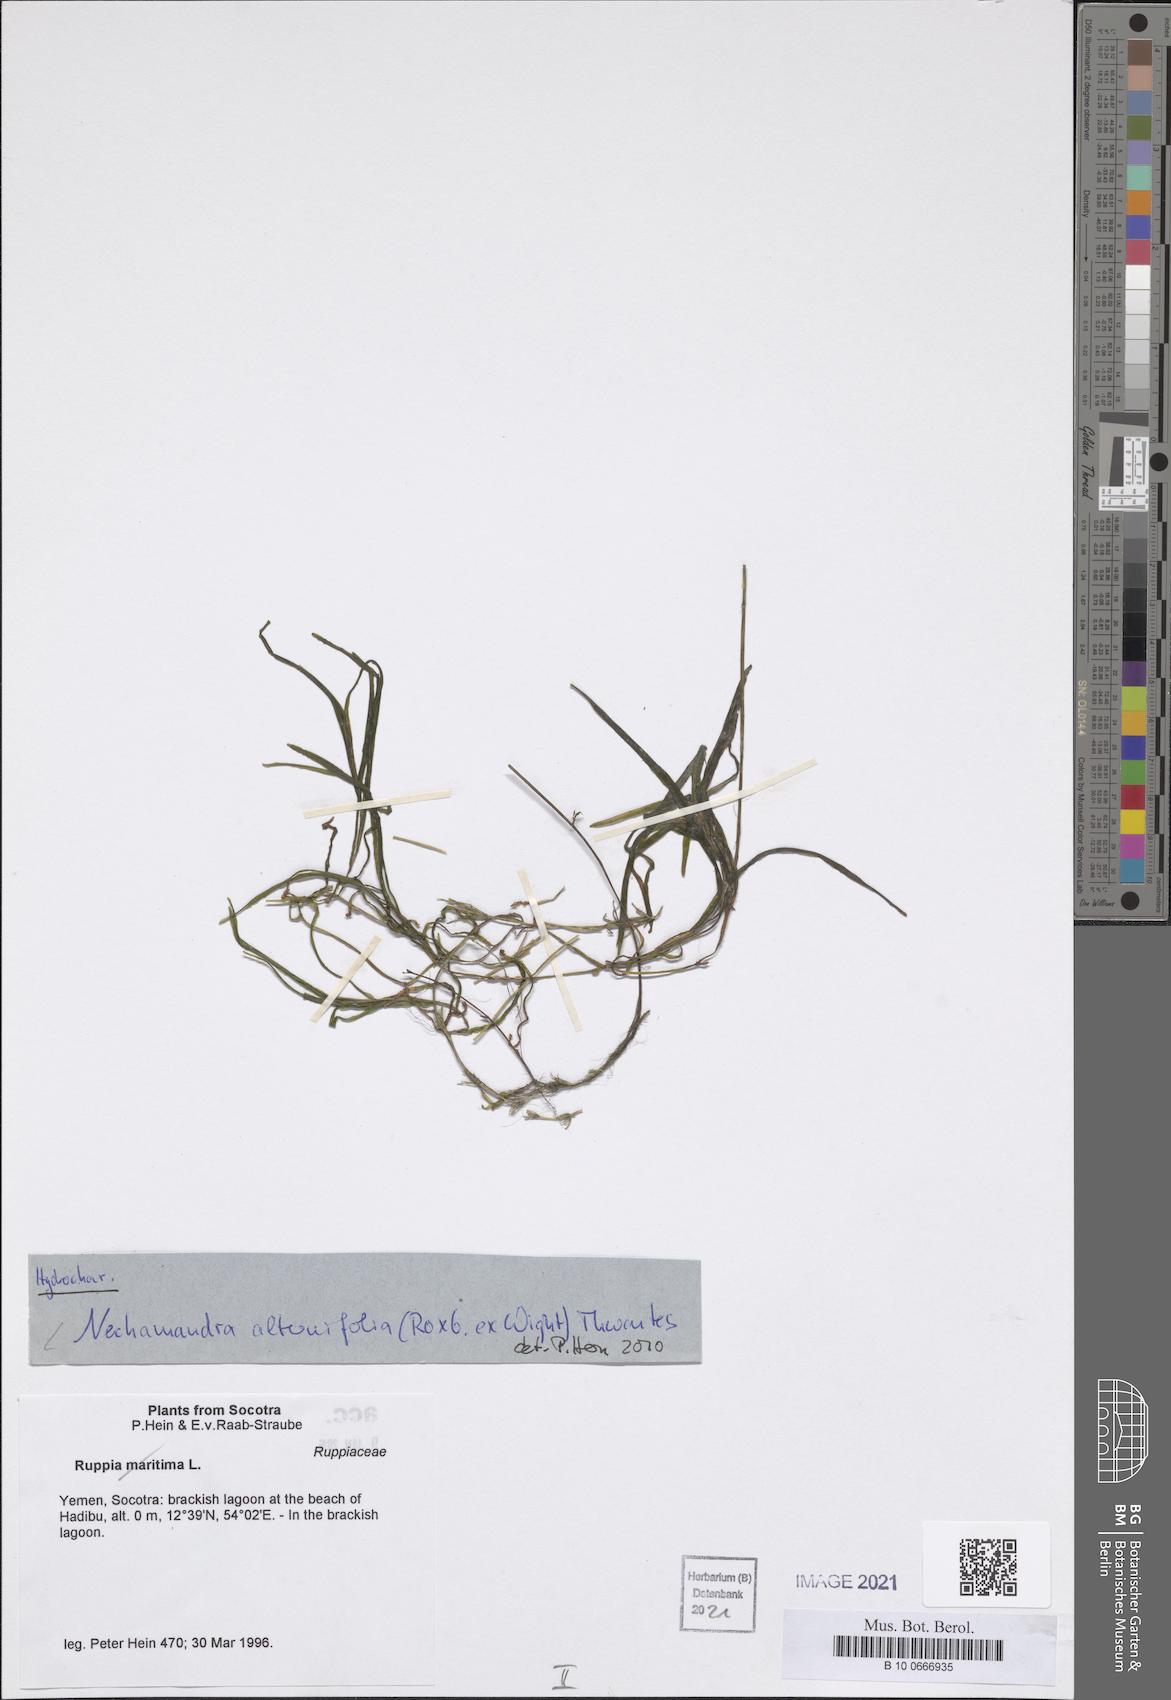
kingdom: Plantae
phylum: Tracheophyta
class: Liliopsida
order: Alismatales
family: Hydrocharitaceae
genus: Nechamandra
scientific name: Nechamandra alternifolia
